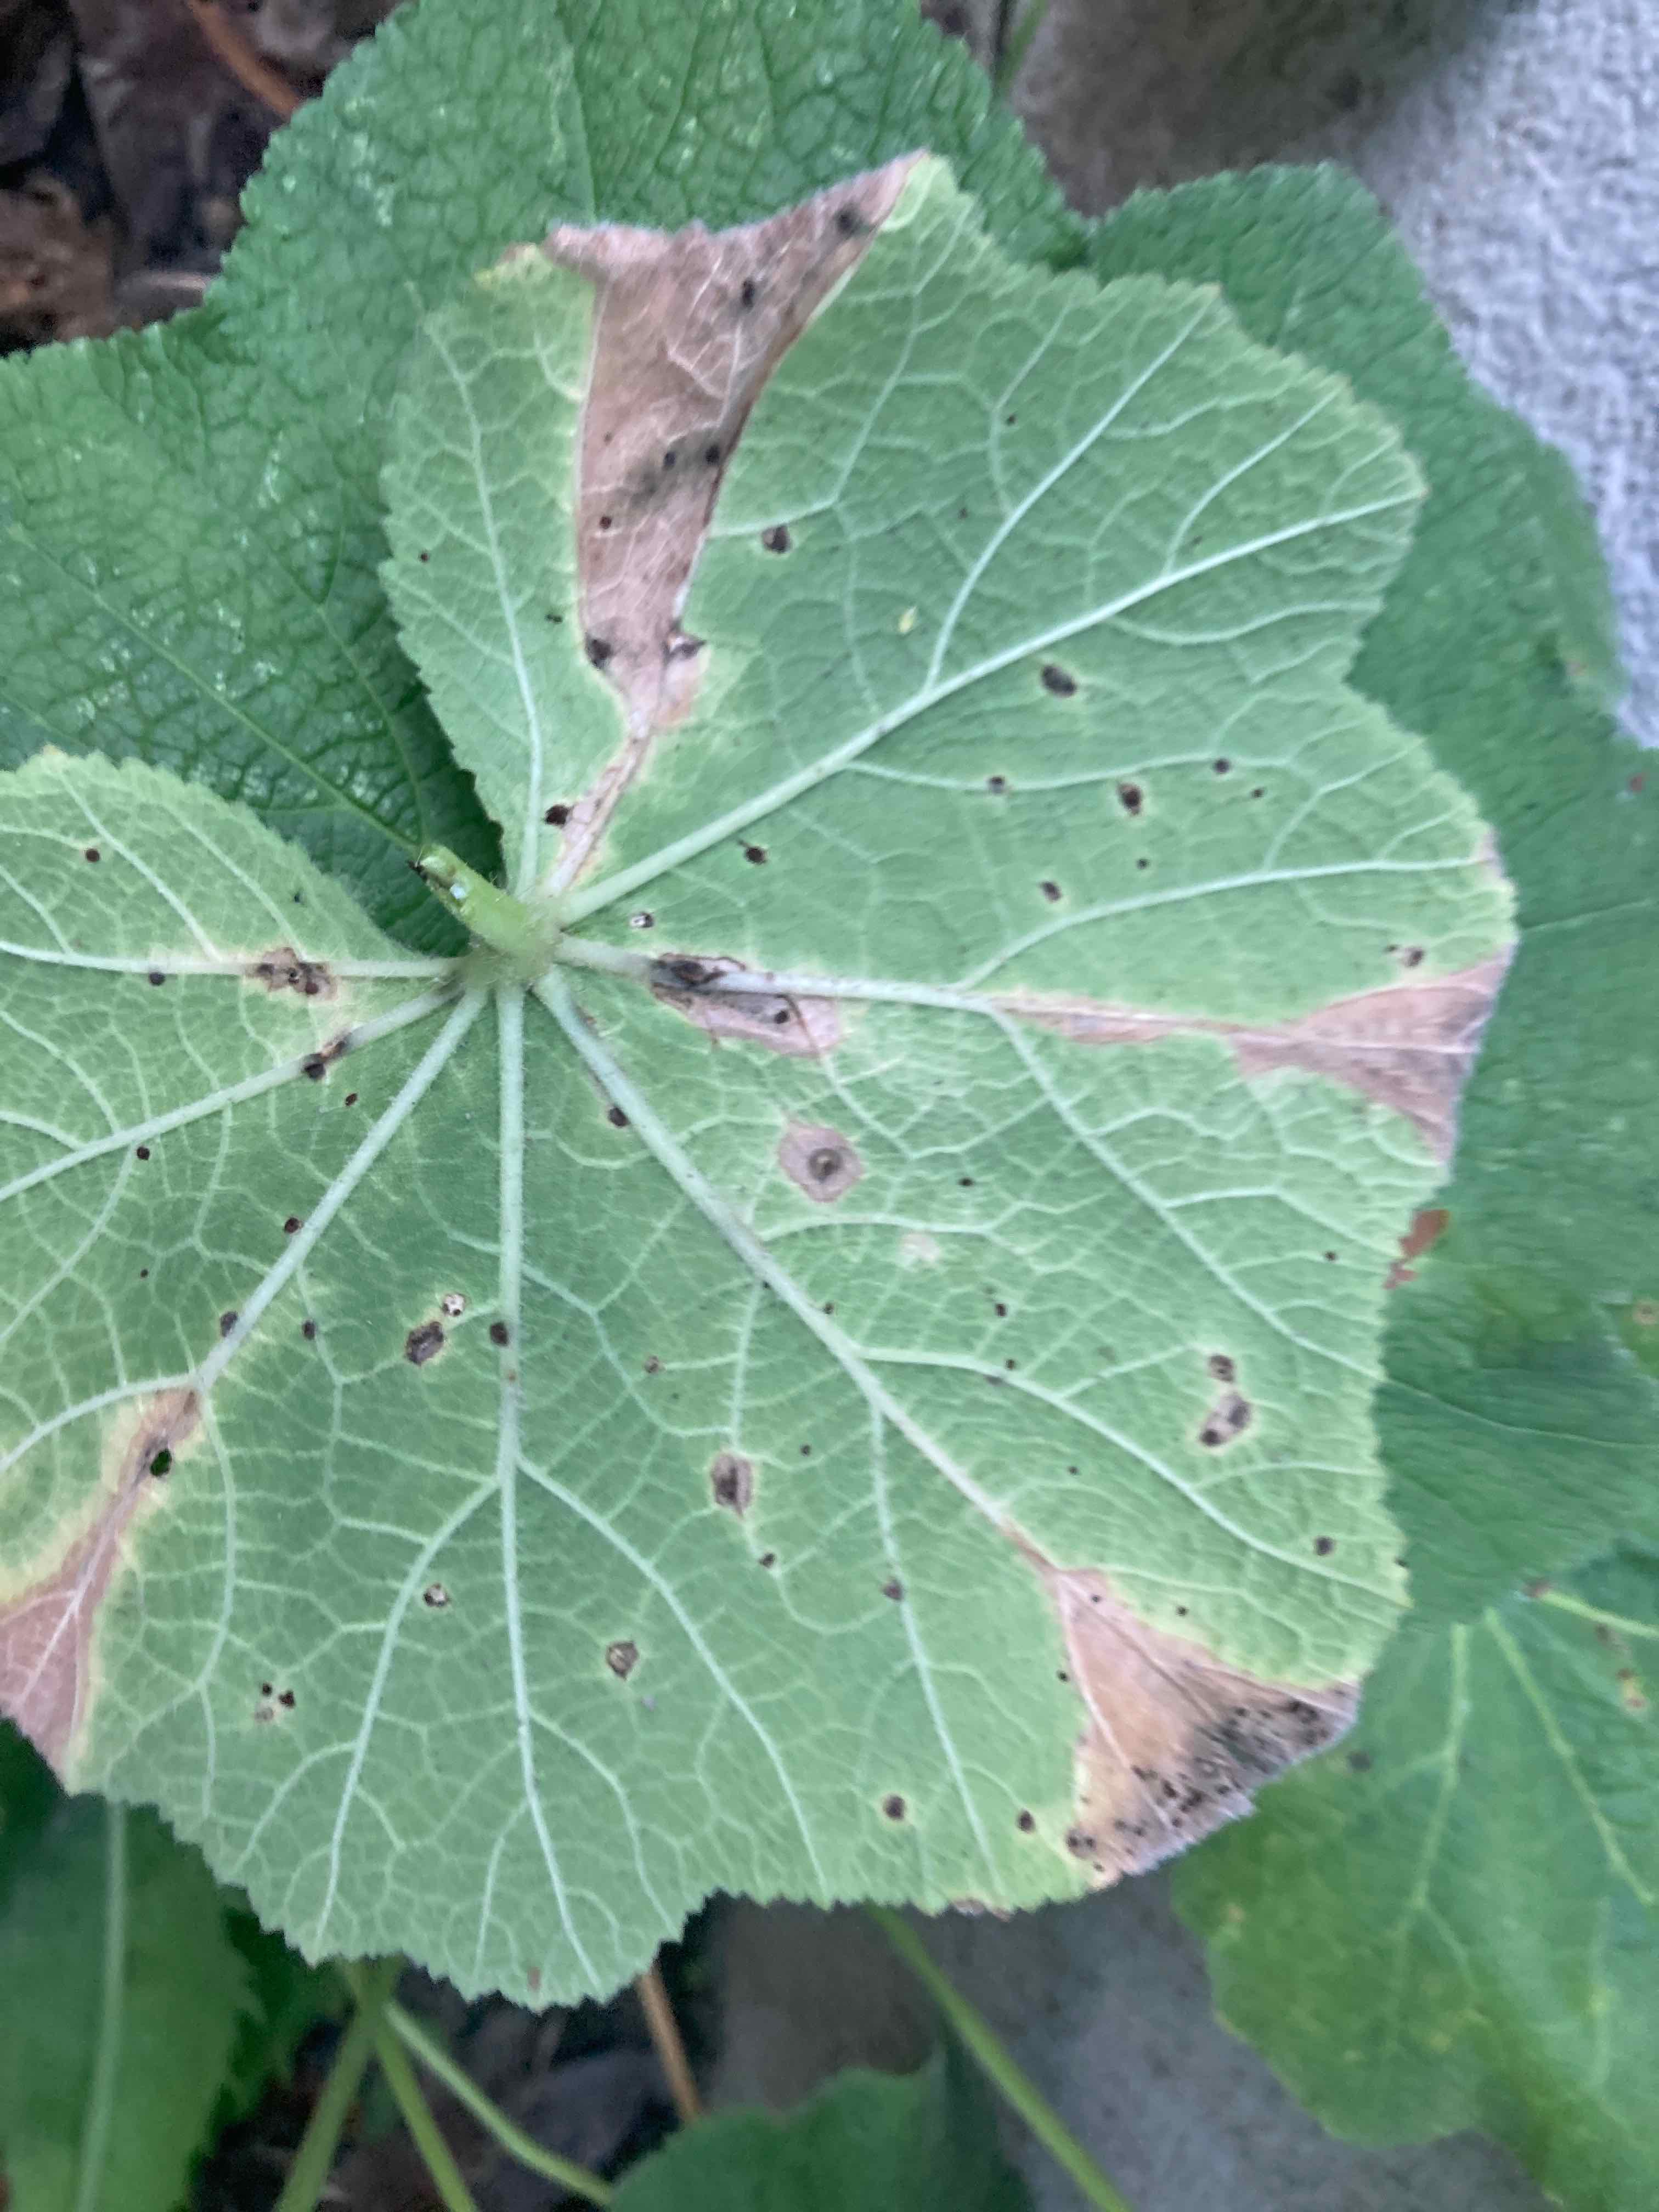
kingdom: Fungi
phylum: Basidiomycota
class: Pucciniomycetes
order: Pucciniales
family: Pucciniaceae
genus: Puccinia
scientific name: Puccinia malvacearum
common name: stokrose-tvecellerust
